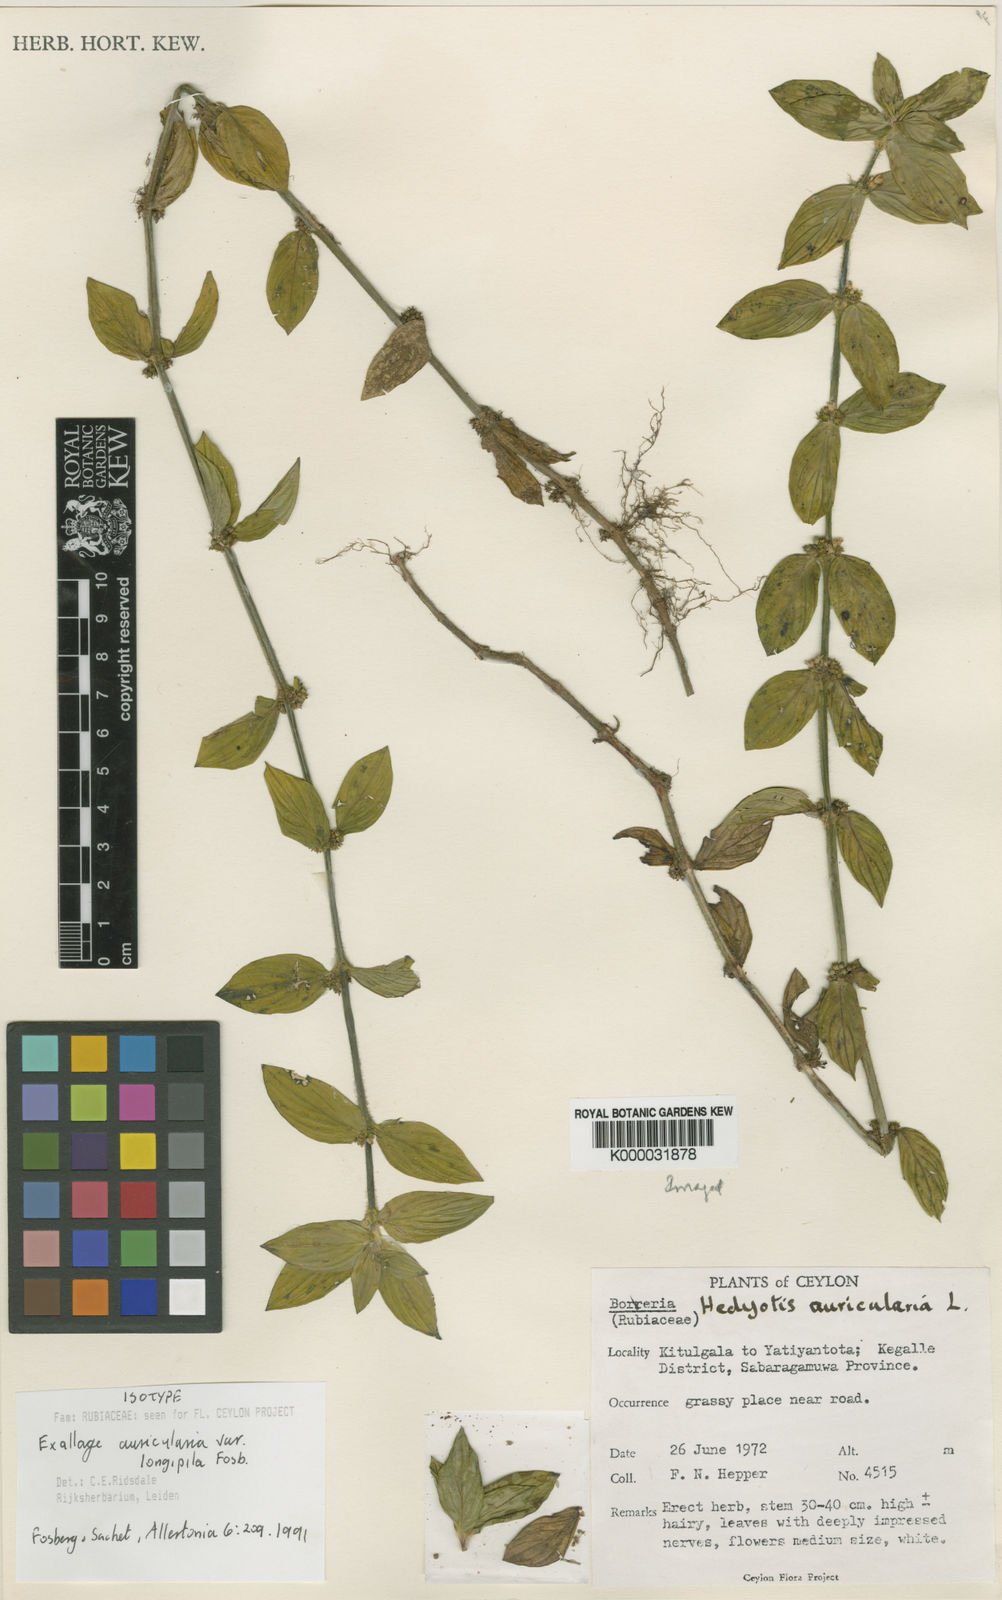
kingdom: Plantae
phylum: Tracheophyta
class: Magnoliopsida
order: Gentianales
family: Rubiaceae
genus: Exallage
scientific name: Exallage
